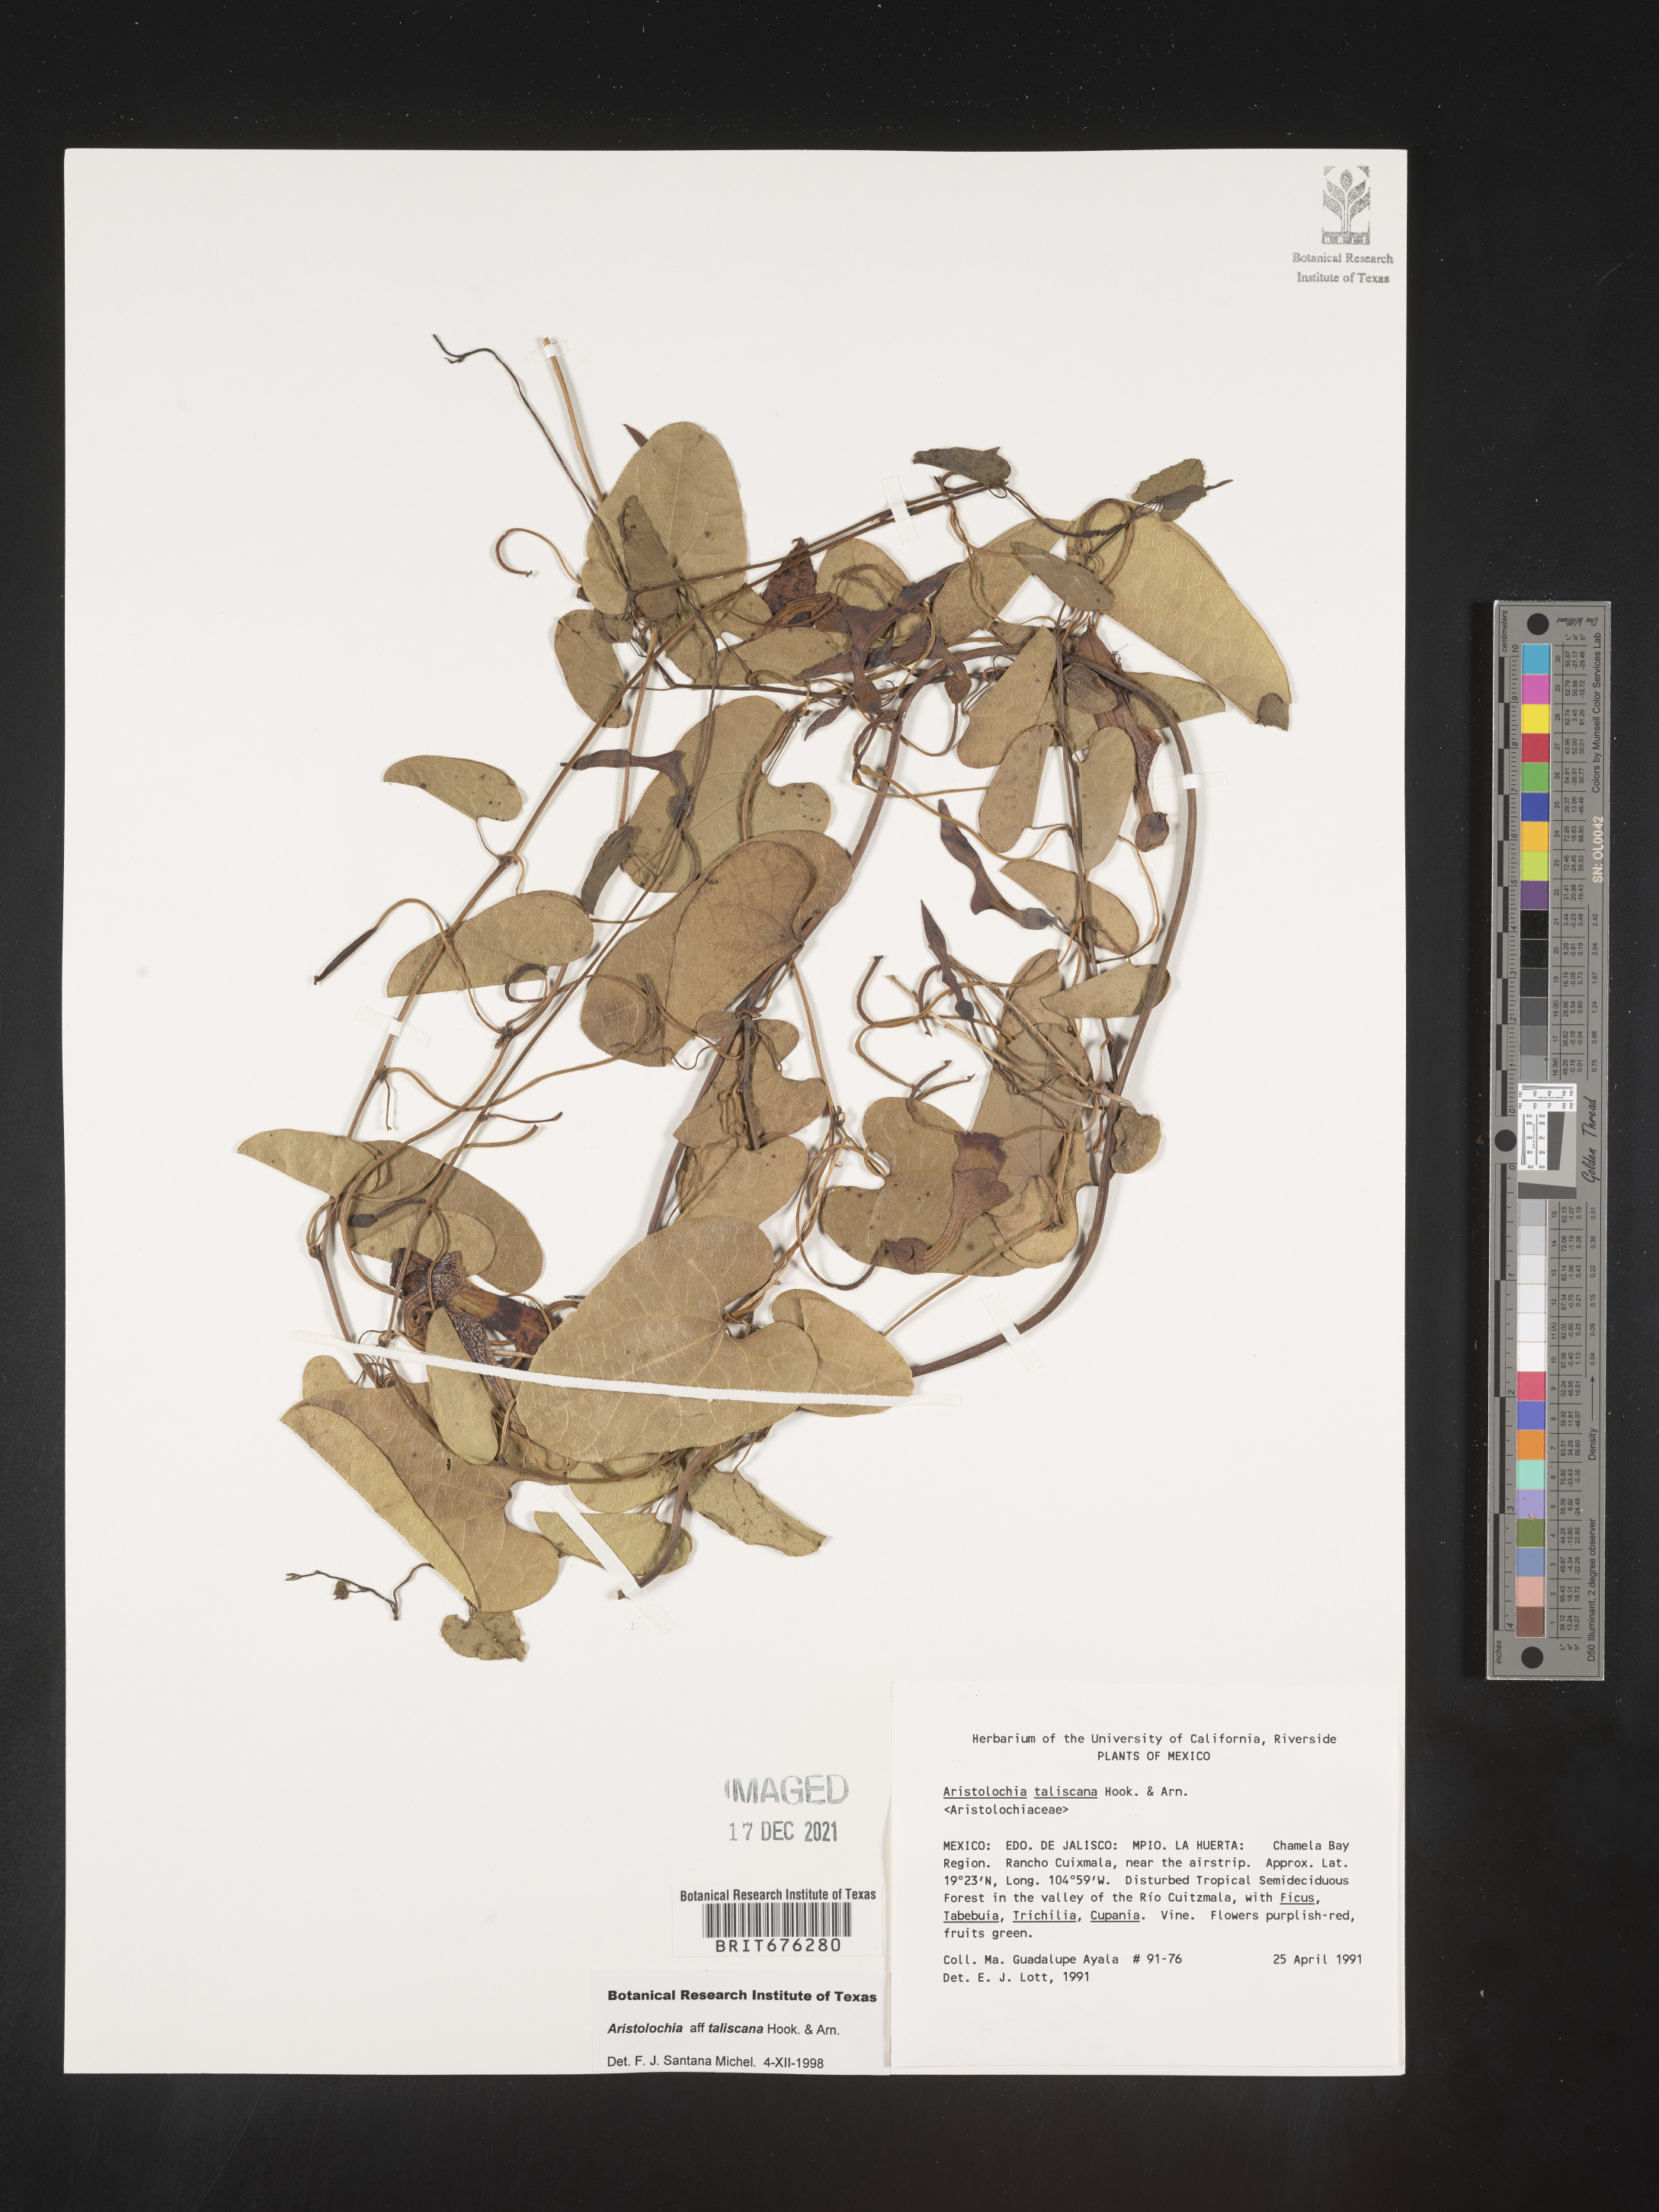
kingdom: Plantae
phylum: Tracheophyta
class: Magnoliopsida
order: Piperales
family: Aristolochiaceae
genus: Aristolochia
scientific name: Aristolochia
